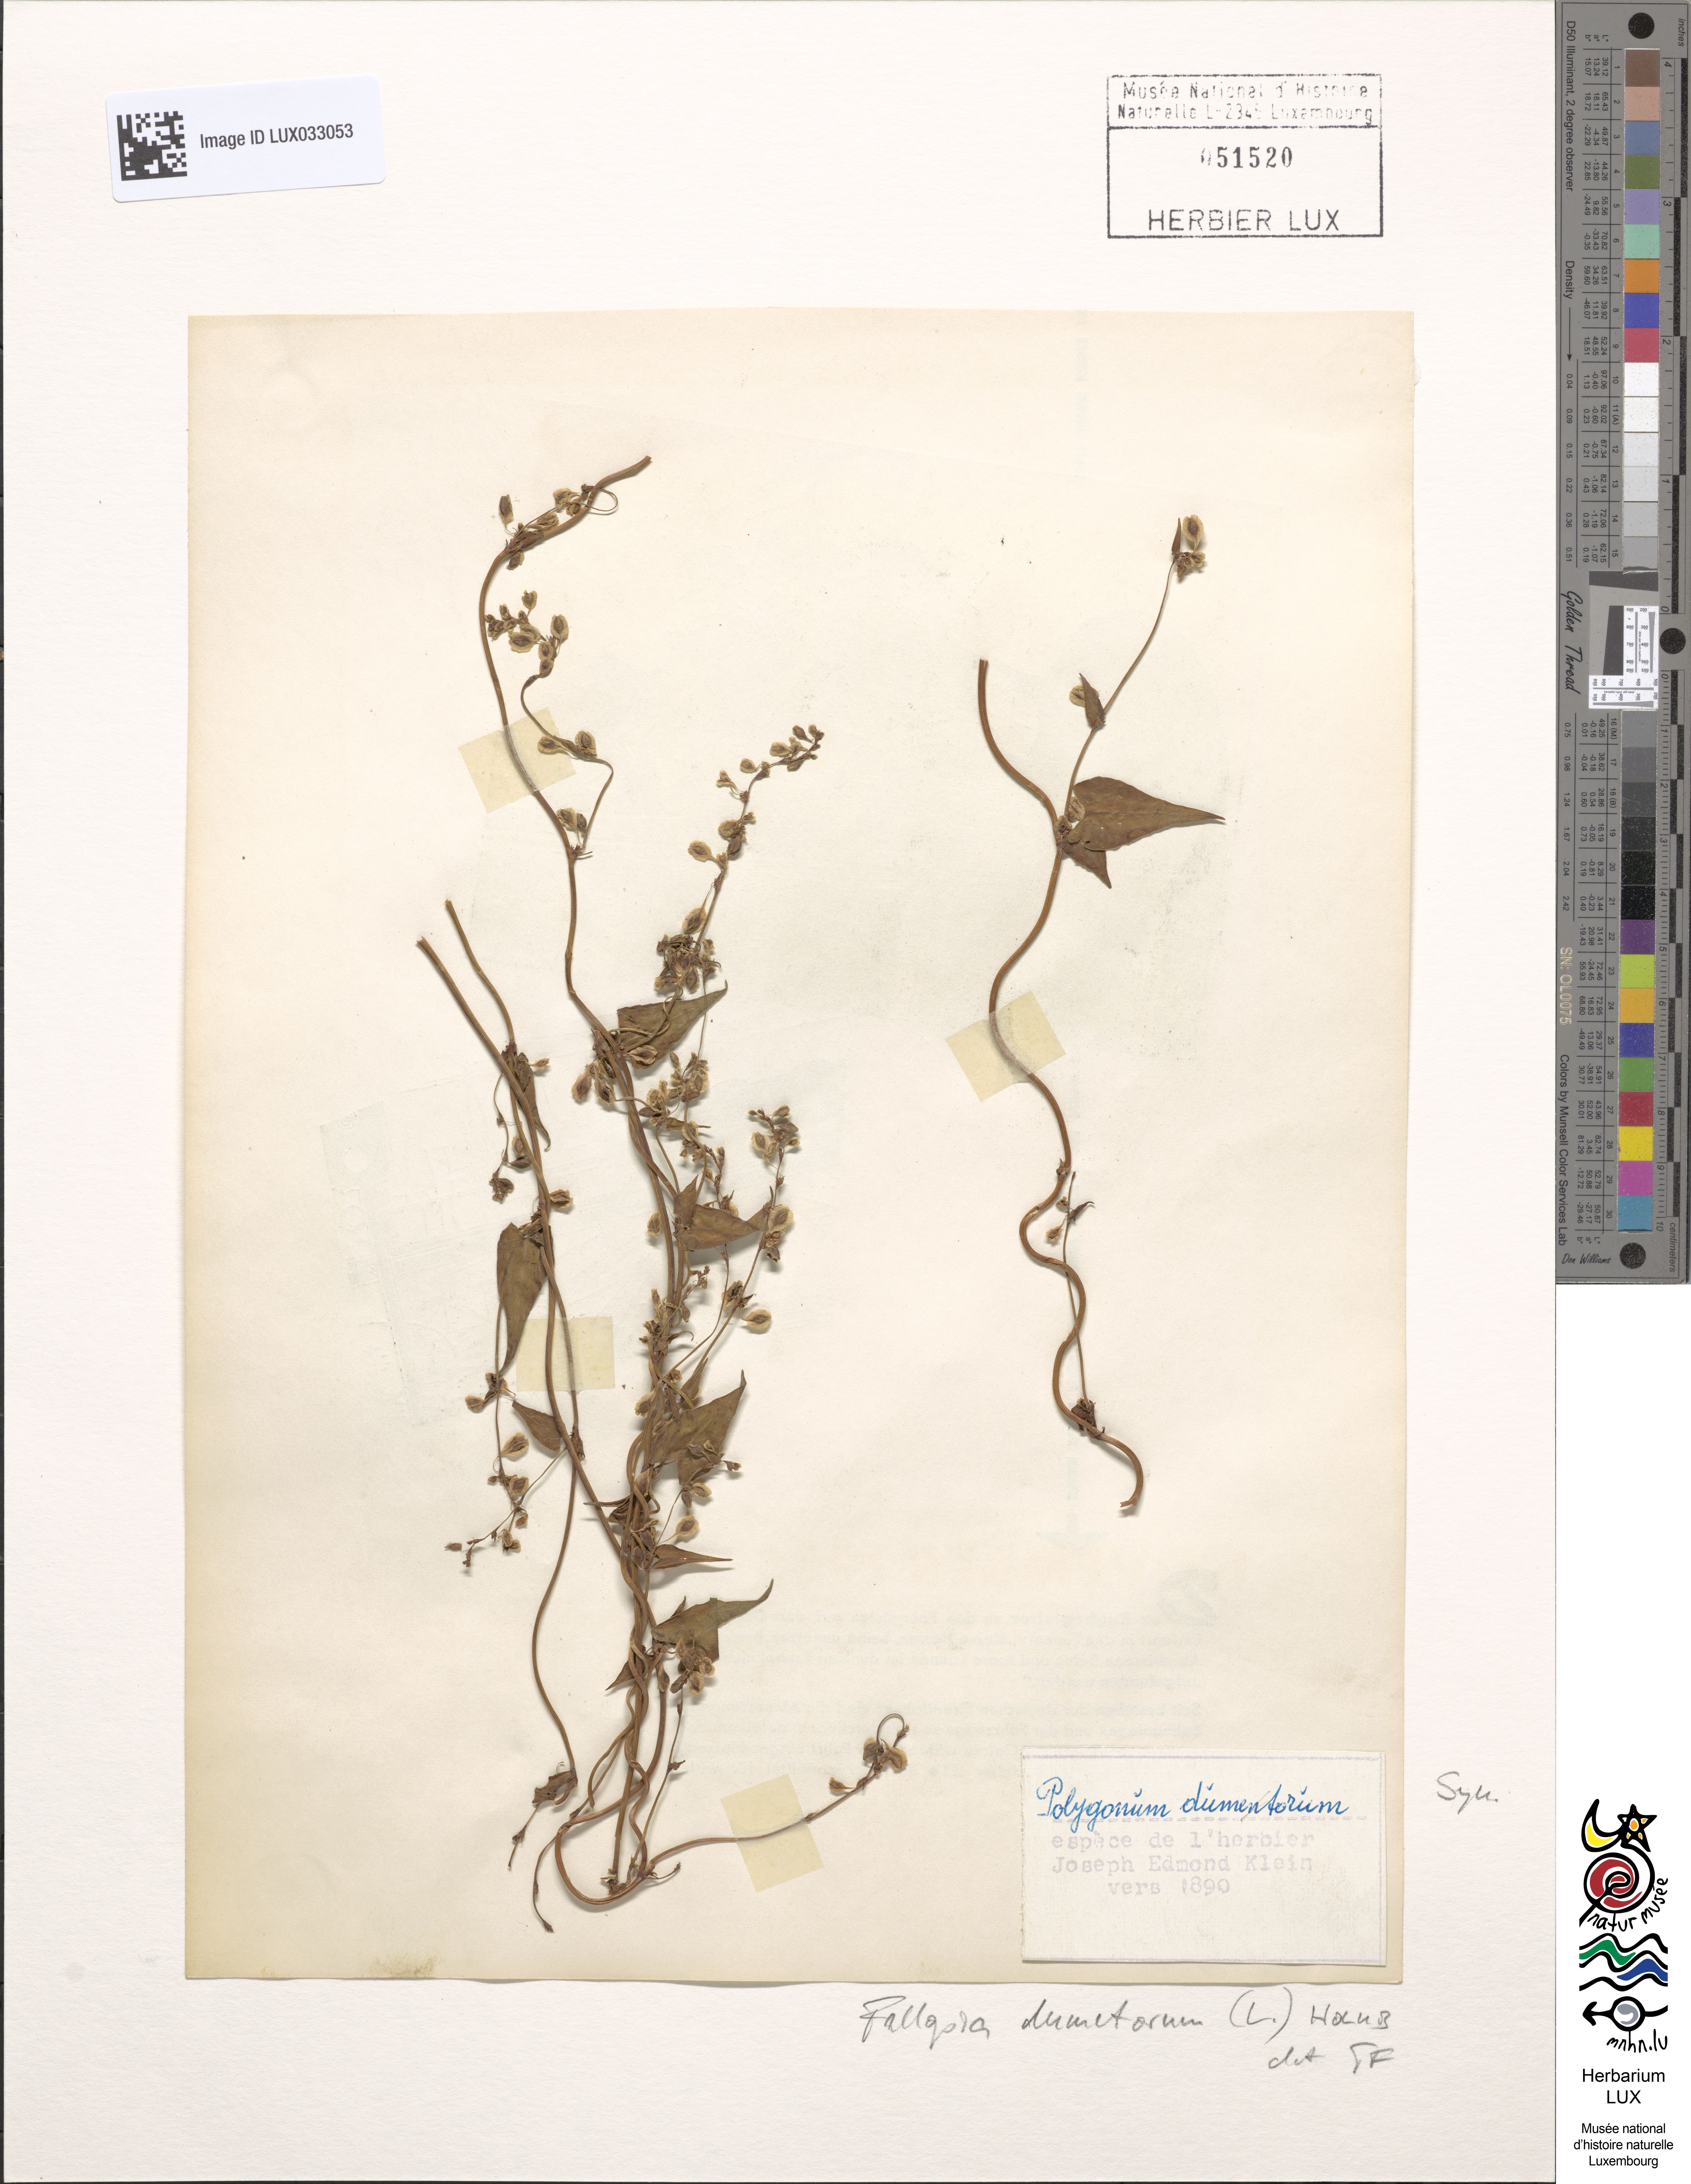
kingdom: Plantae
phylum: Tracheophyta
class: Magnoliopsida
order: Caryophyllales
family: Polygonaceae
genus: Fallopia
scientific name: Fallopia dumetorum
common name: Copse-bindweed
